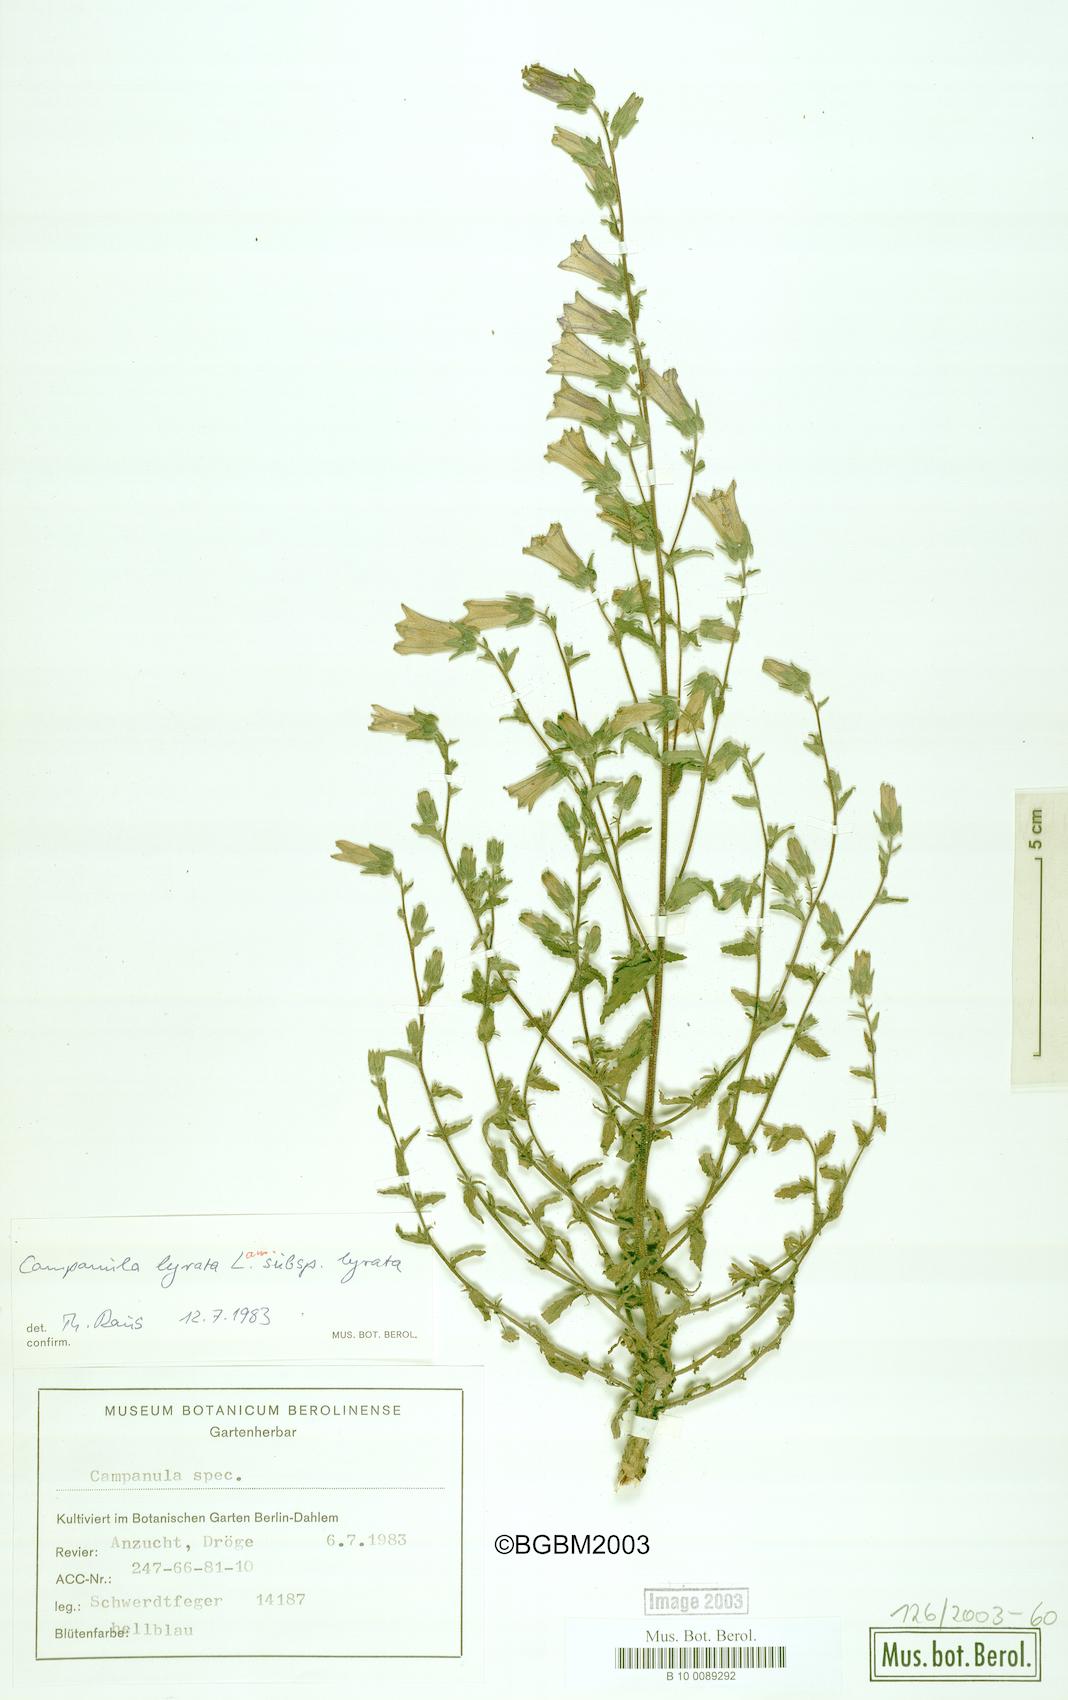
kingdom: Plantae
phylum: Tracheophyta
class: Magnoliopsida
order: Asterales
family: Campanulaceae
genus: Campanula
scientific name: Campanula lyrata
